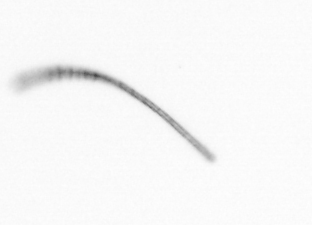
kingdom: Chromista
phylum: Ochrophyta
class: Bacillariophyceae
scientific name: Bacillariophyceae
